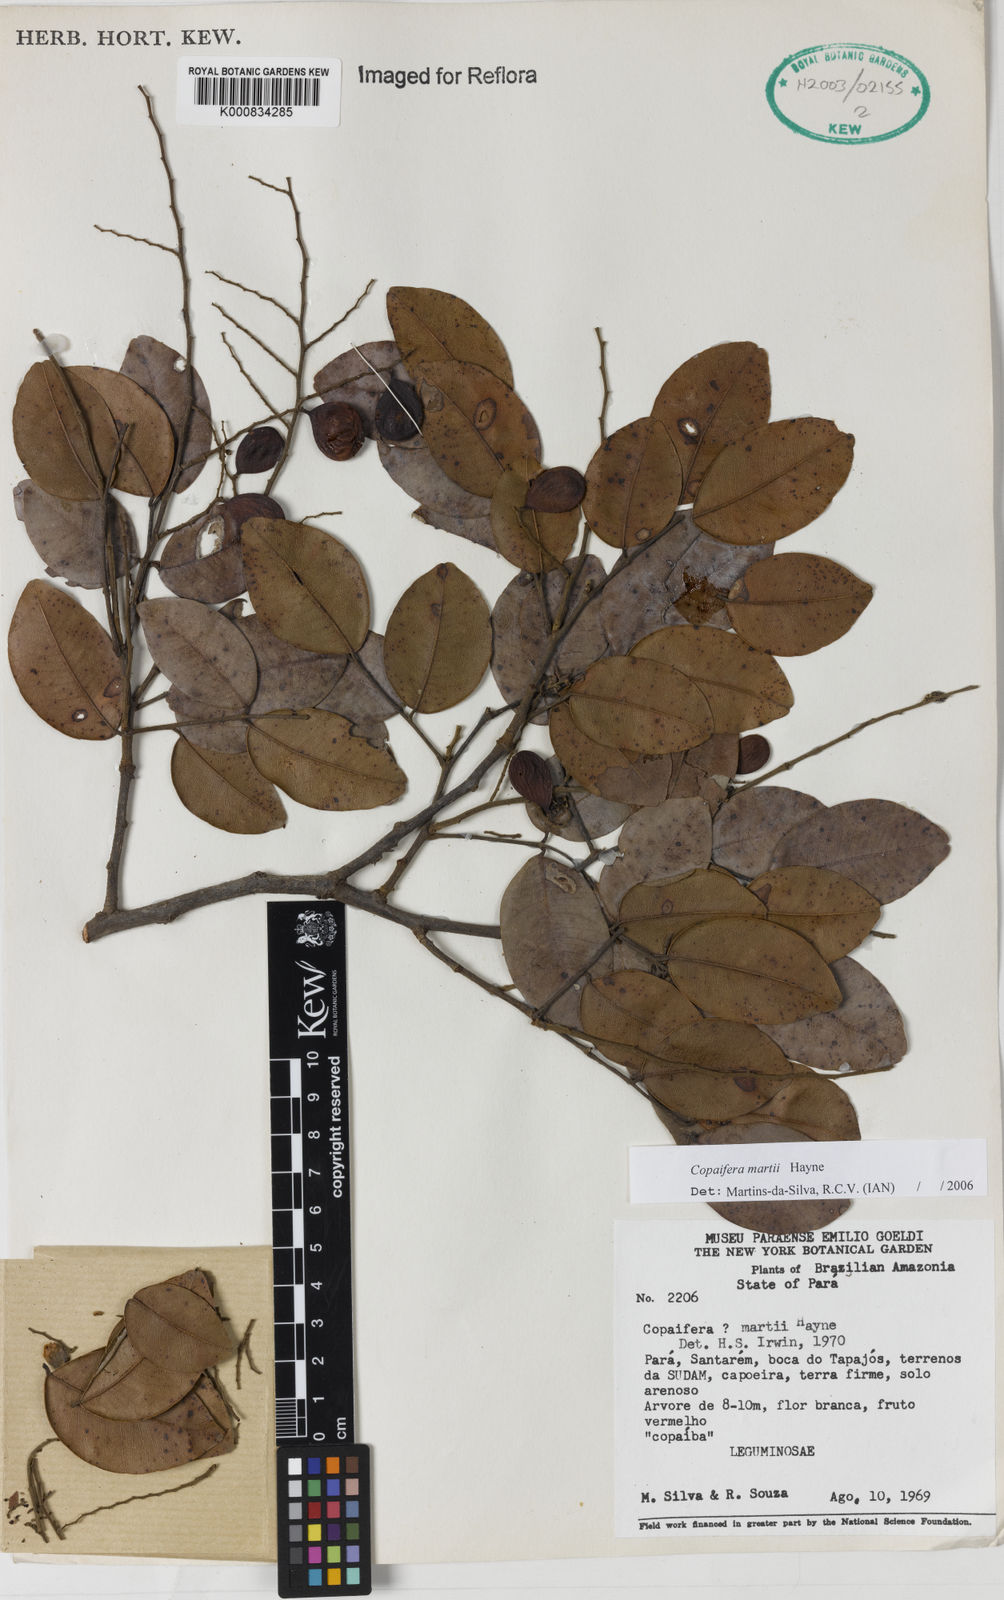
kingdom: Plantae
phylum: Tracheophyta
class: Magnoliopsida
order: Fabales
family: Fabaceae
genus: Copaifera
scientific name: Copaifera martii
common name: Copaiba
